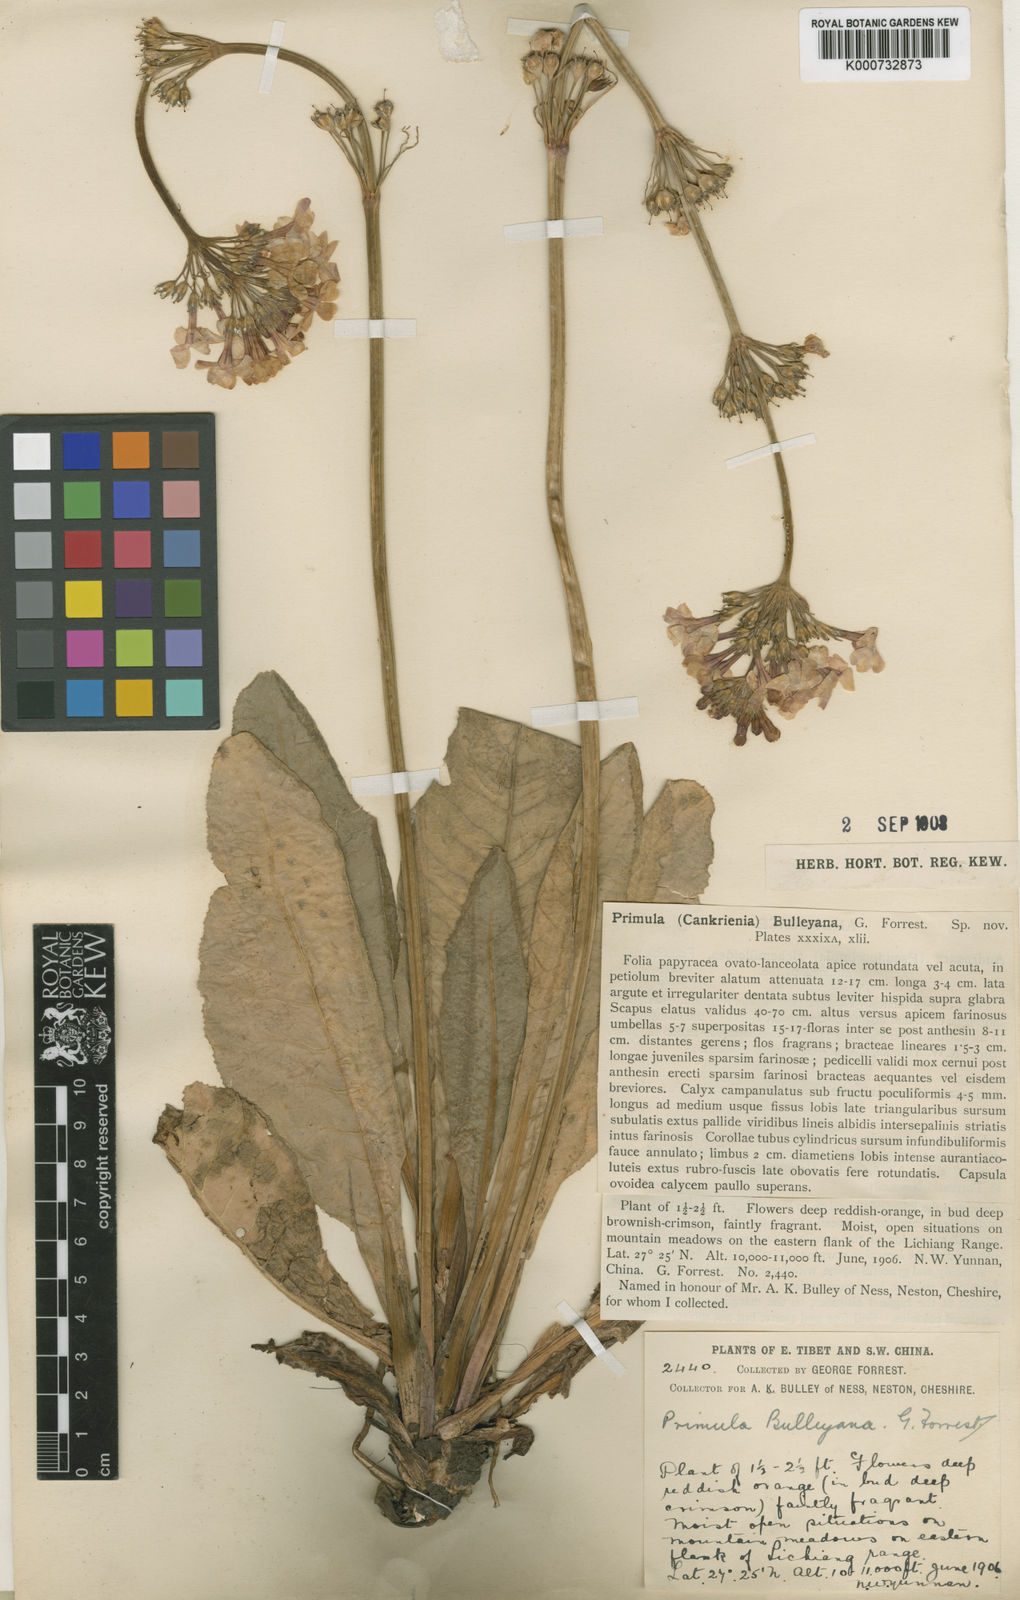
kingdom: Plantae
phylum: Tracheophyta
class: Magnoliopsida
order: Ericales
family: Primulaceae
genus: Primula
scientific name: Primula bulleyana
